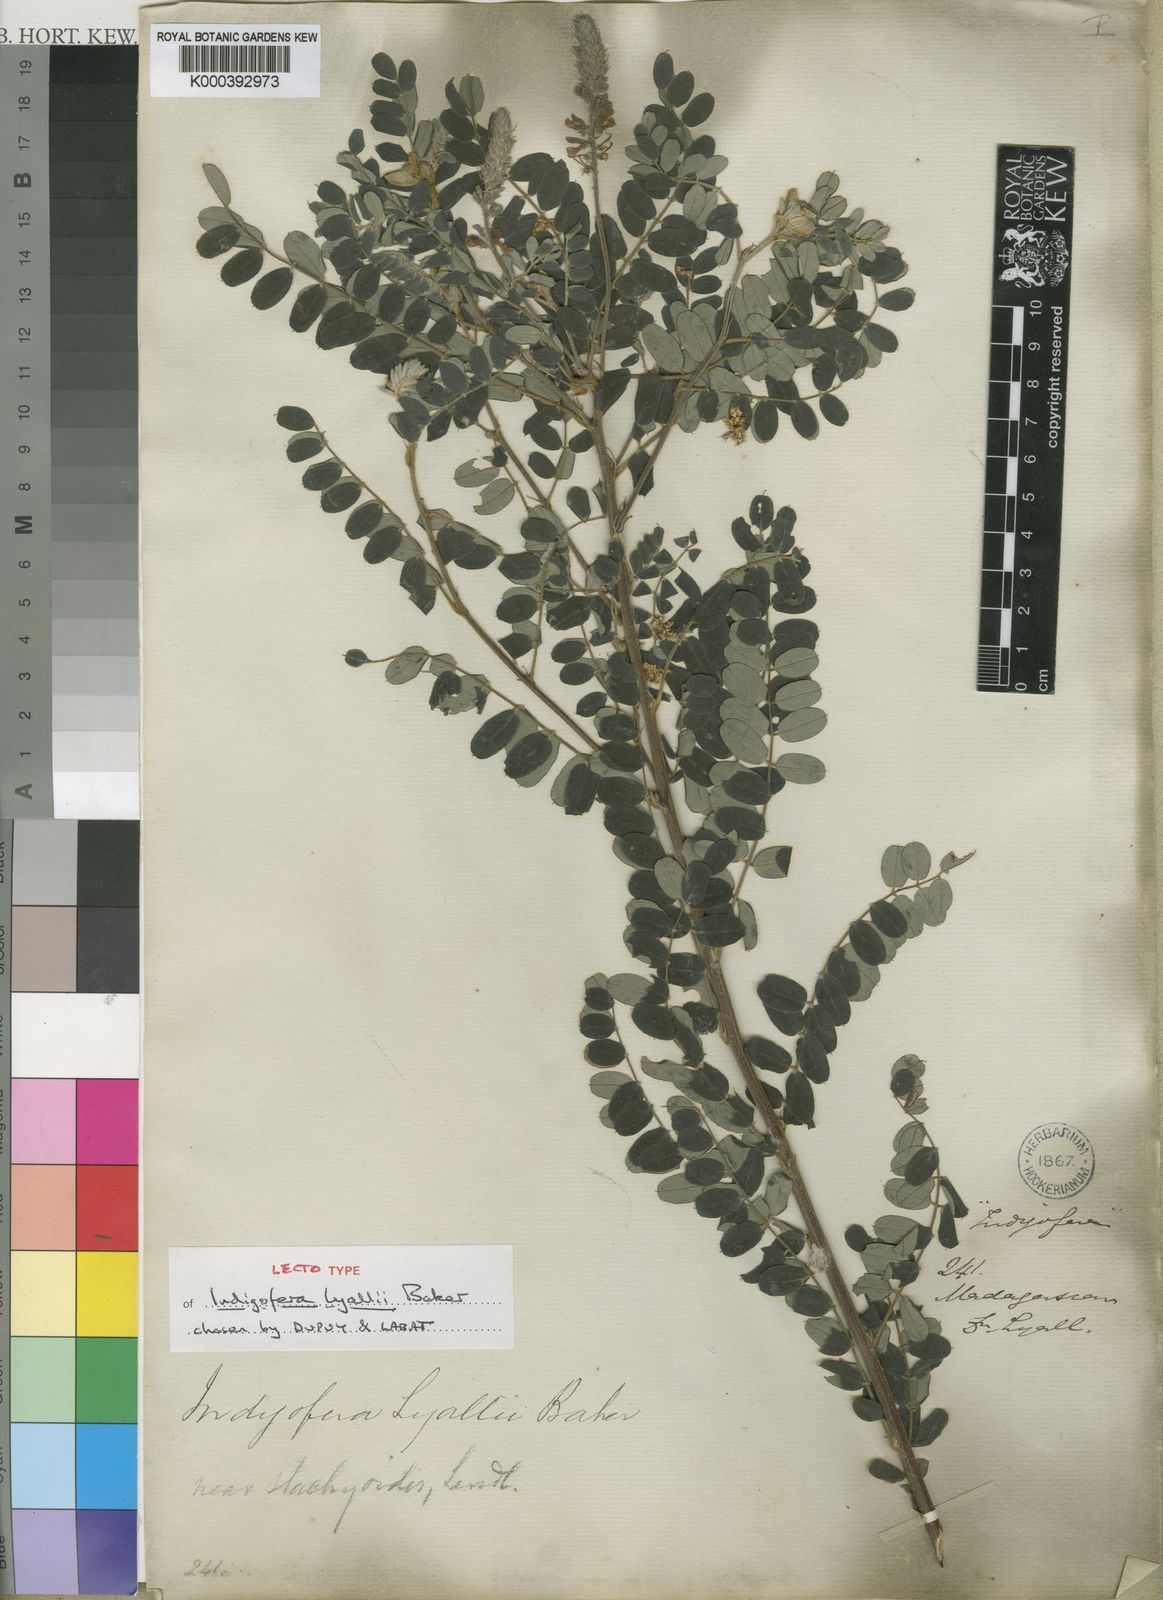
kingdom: Plantae
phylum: Tracheophyta
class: Magnoliopsida
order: Fabales
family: Fabaceae
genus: Indigofera
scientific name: Indigofera lyallii
